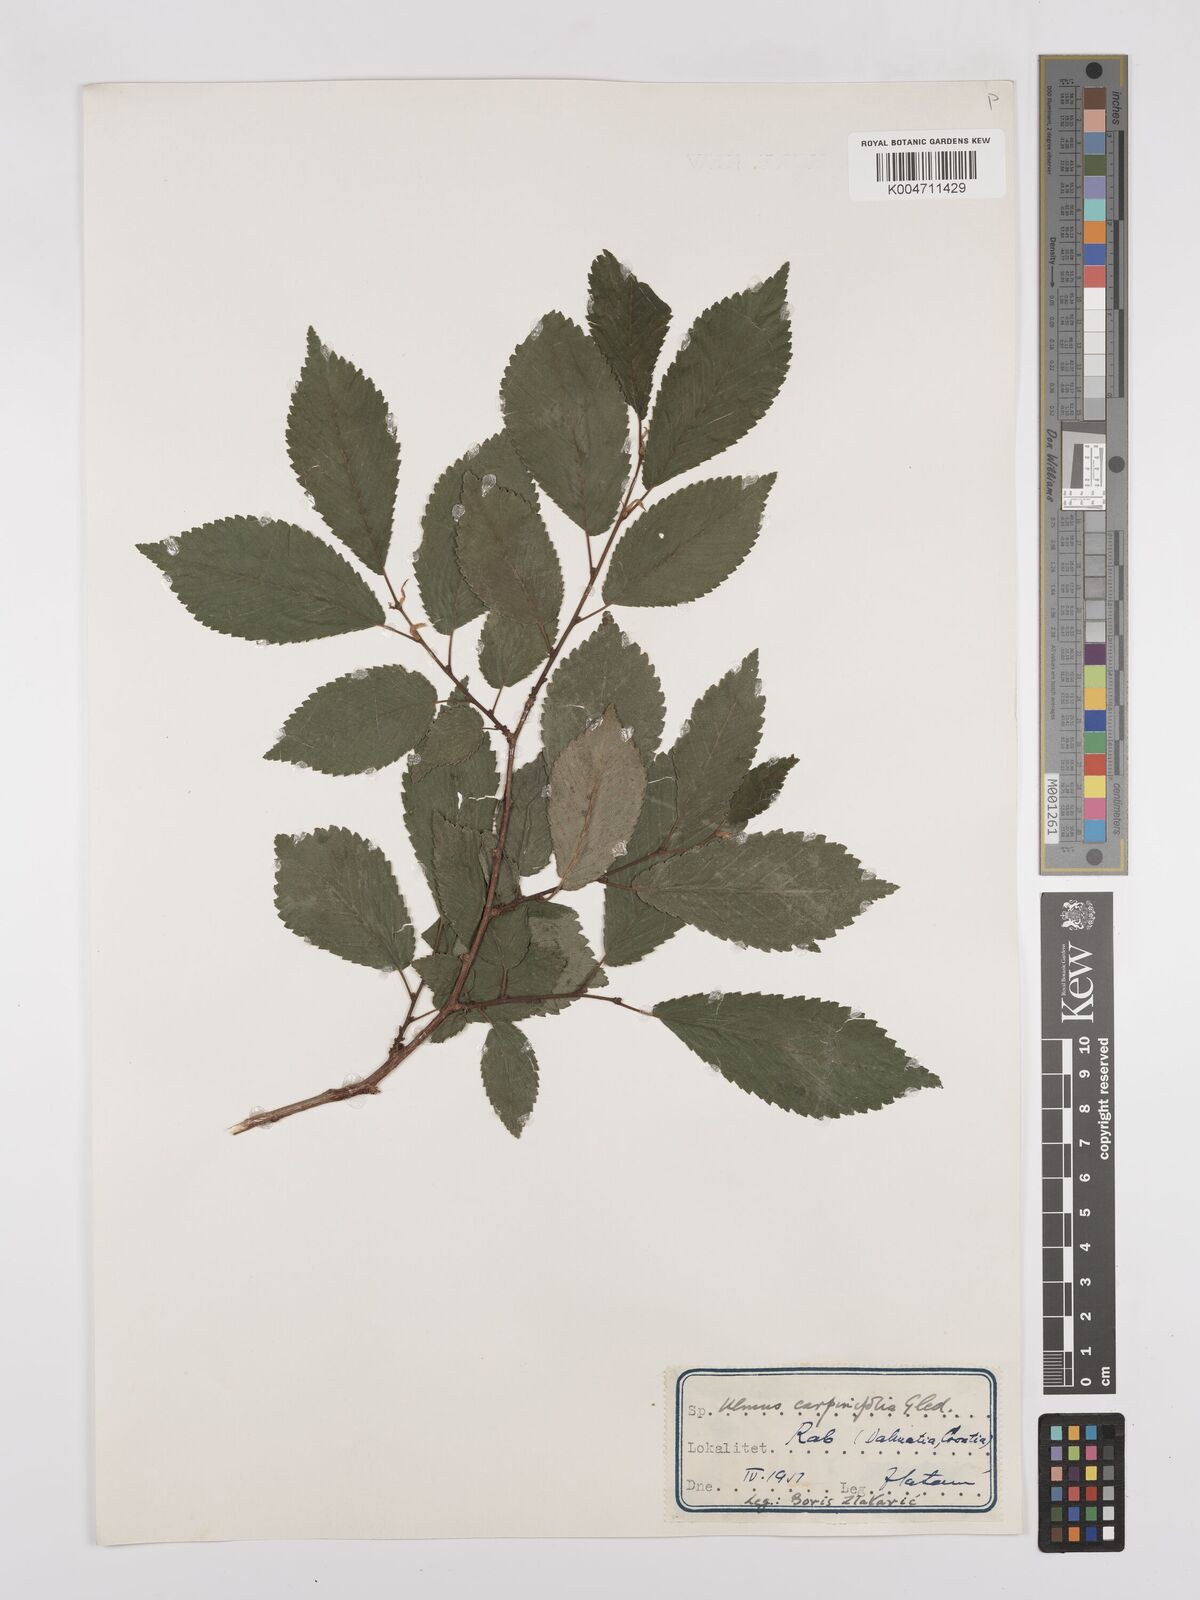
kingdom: Plantae
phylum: Tracheophyta
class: Magnoliopsida
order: Rosales
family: Ulmaceae
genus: Ulmus
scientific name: Ulmus minor
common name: Small-leaved elm
